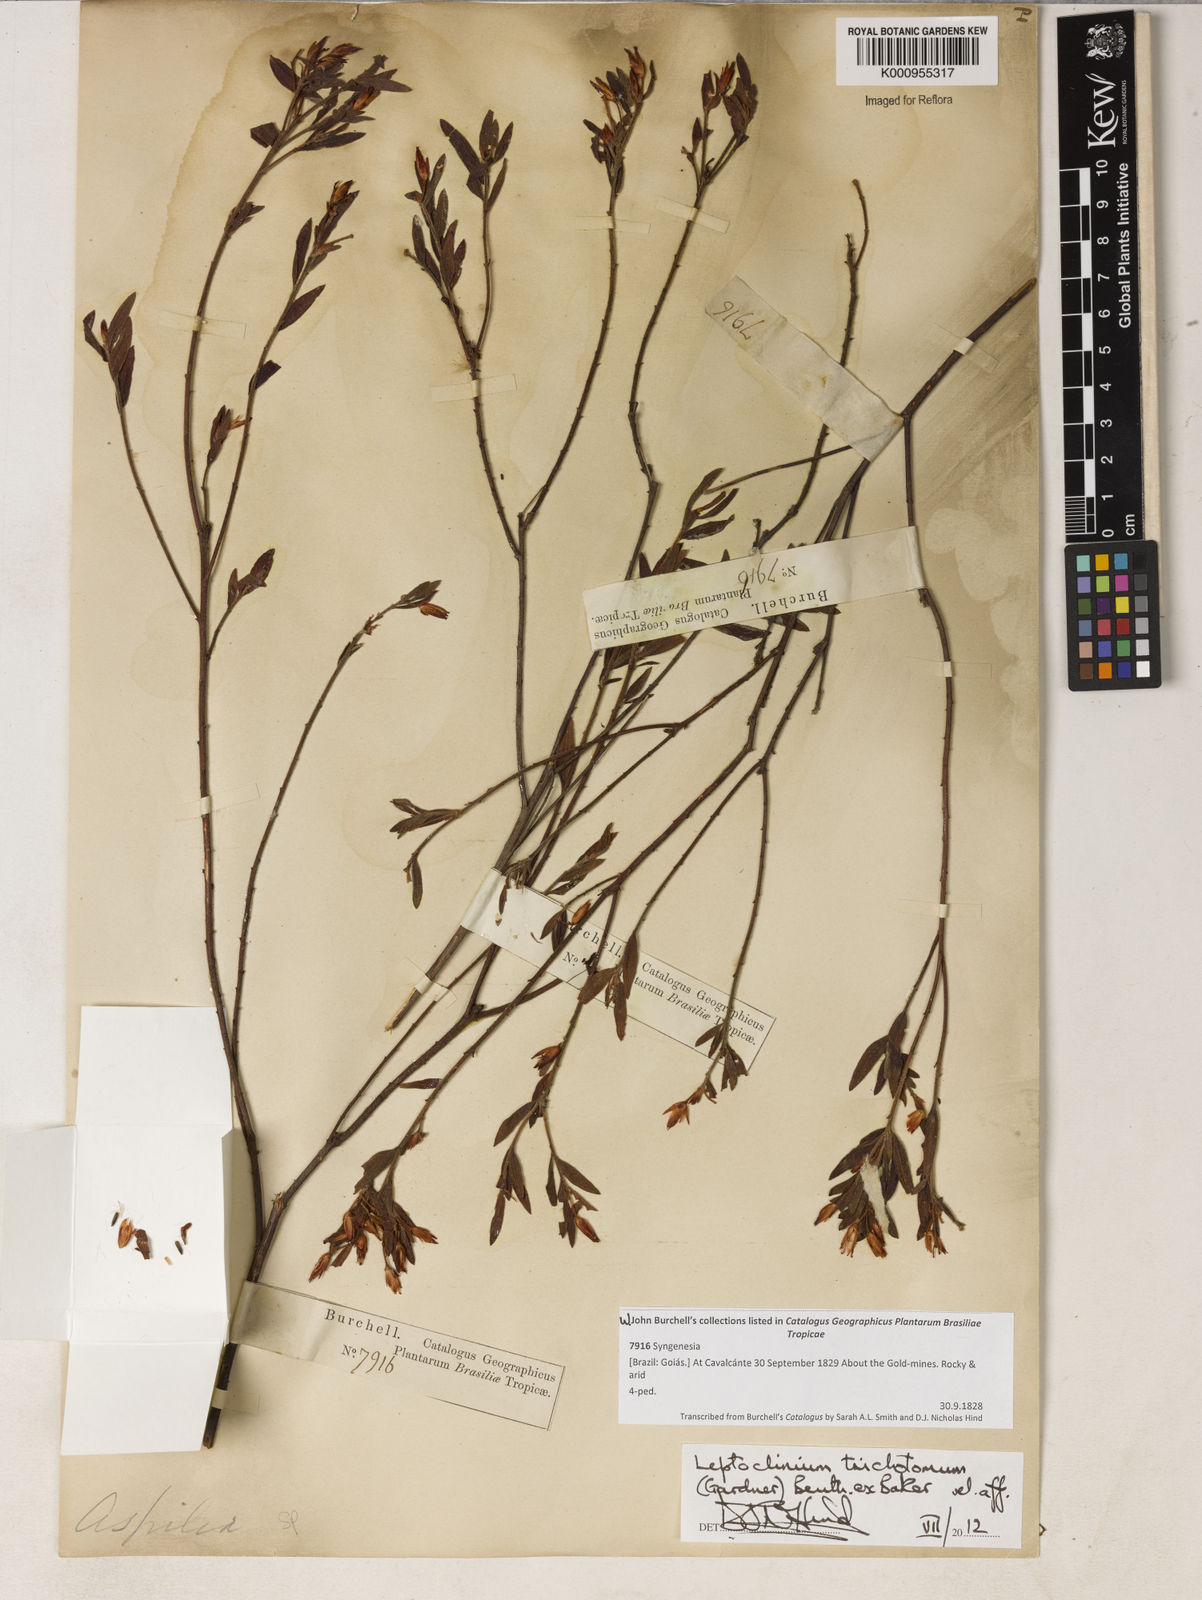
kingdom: Plantae
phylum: Tracheophyta
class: Magnoliopsida
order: Asterales
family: Asteraceae
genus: Leptoclinium
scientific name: Leptoclinium
